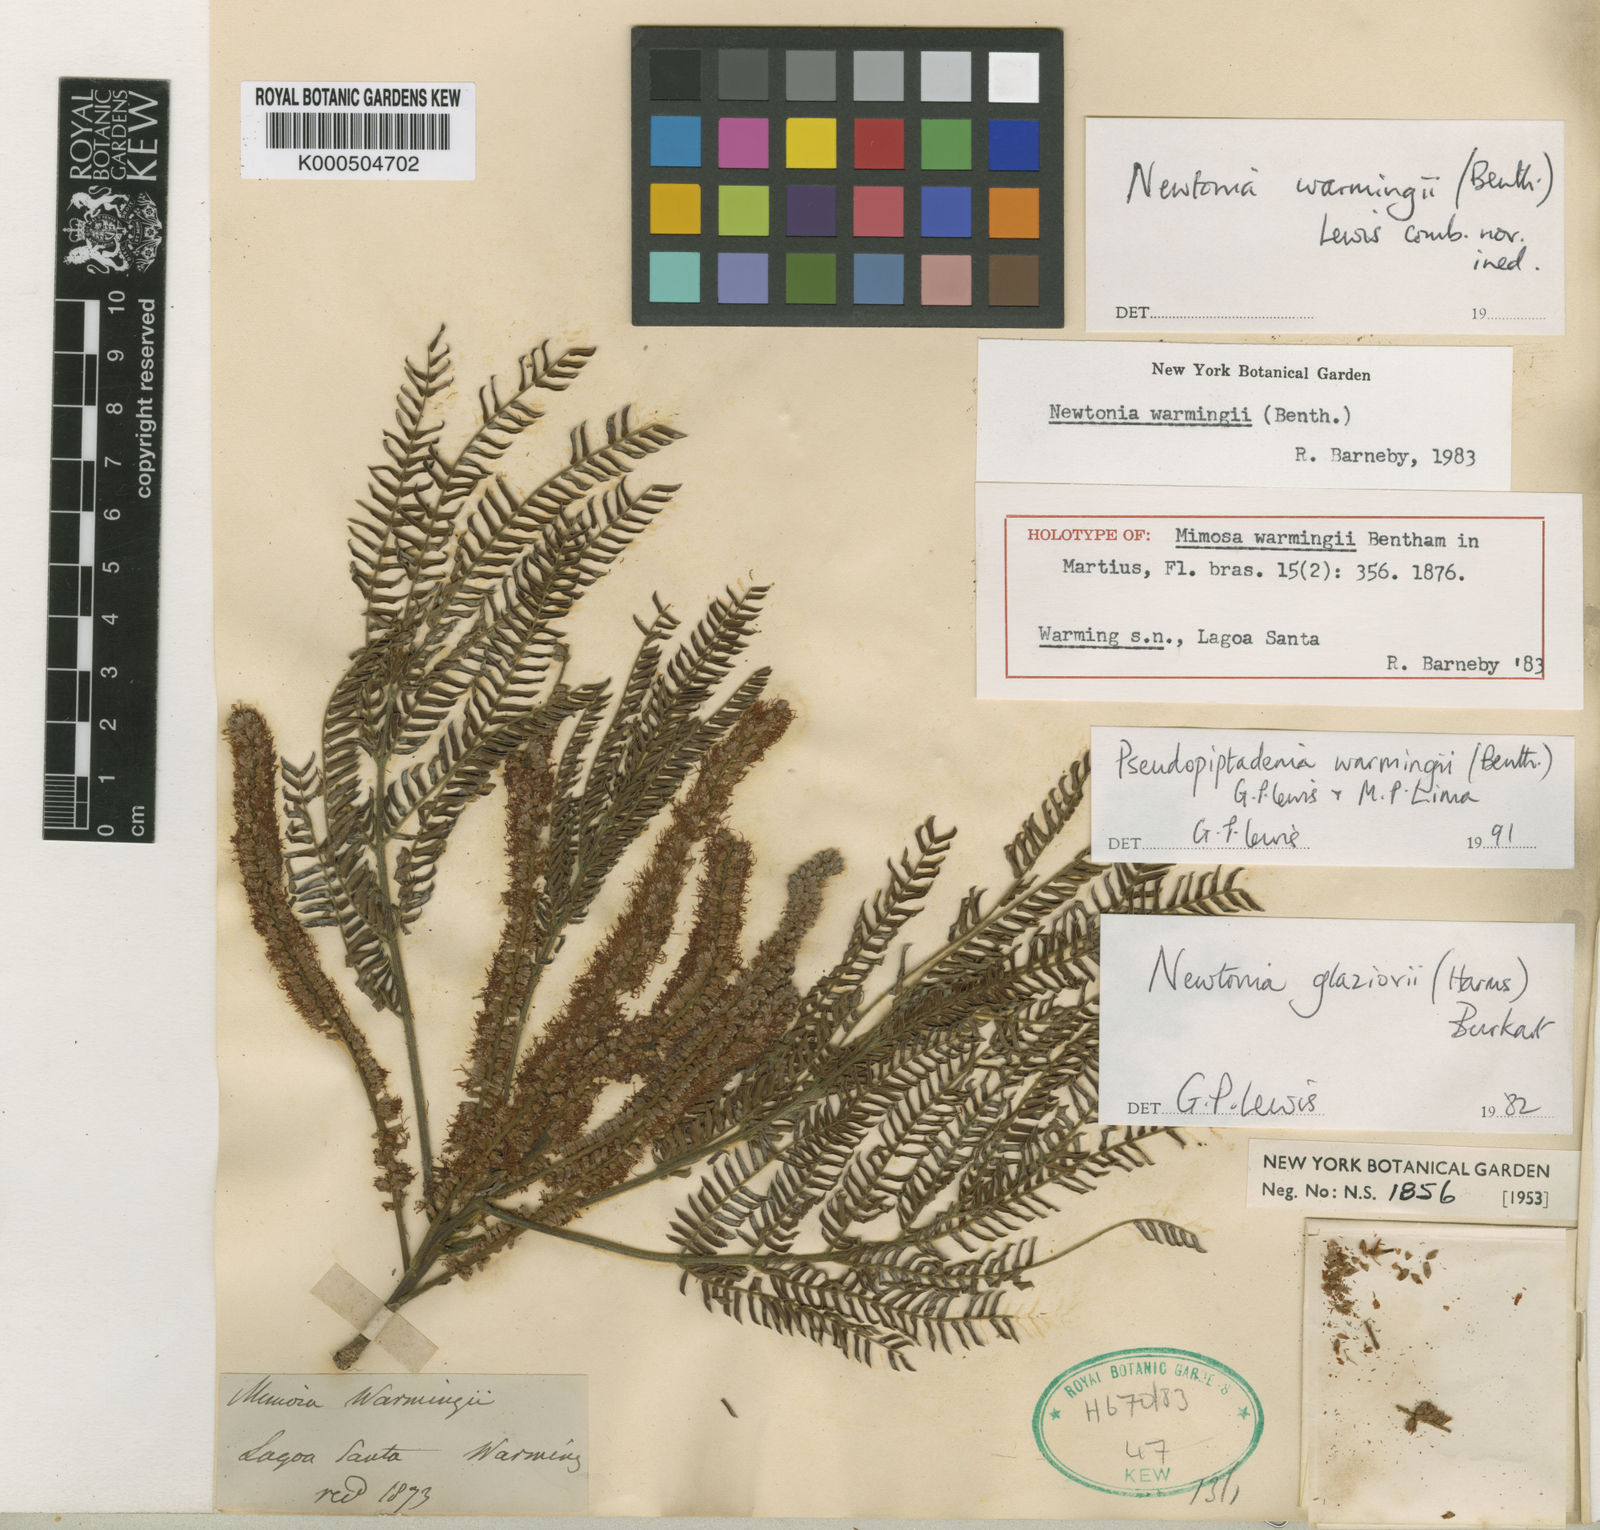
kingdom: Plantae
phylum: Tracheophyta
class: Magnoliopsida
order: Fabales
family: Fabaceae
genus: Pseudopiptadenia
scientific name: Pseudopiptadenia warmingii
